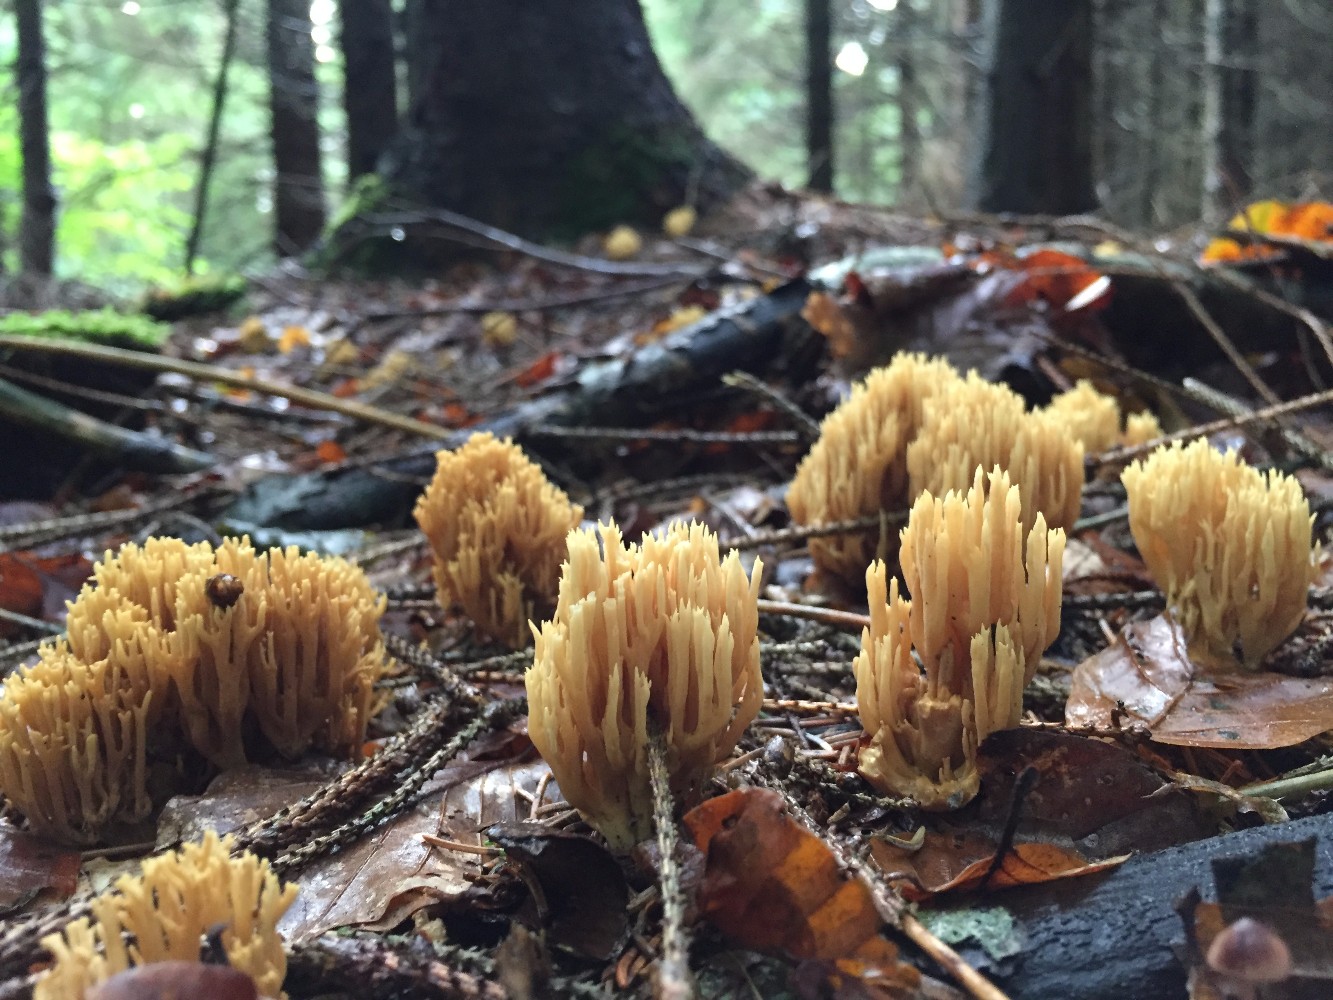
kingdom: Fungi
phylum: Basidiomycota
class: Agaricomycetes
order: Gomphales
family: Gomphaceae
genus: Phaeoclavulina
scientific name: Phaeoclavulina eumorpha
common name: gran-koralsvamp
